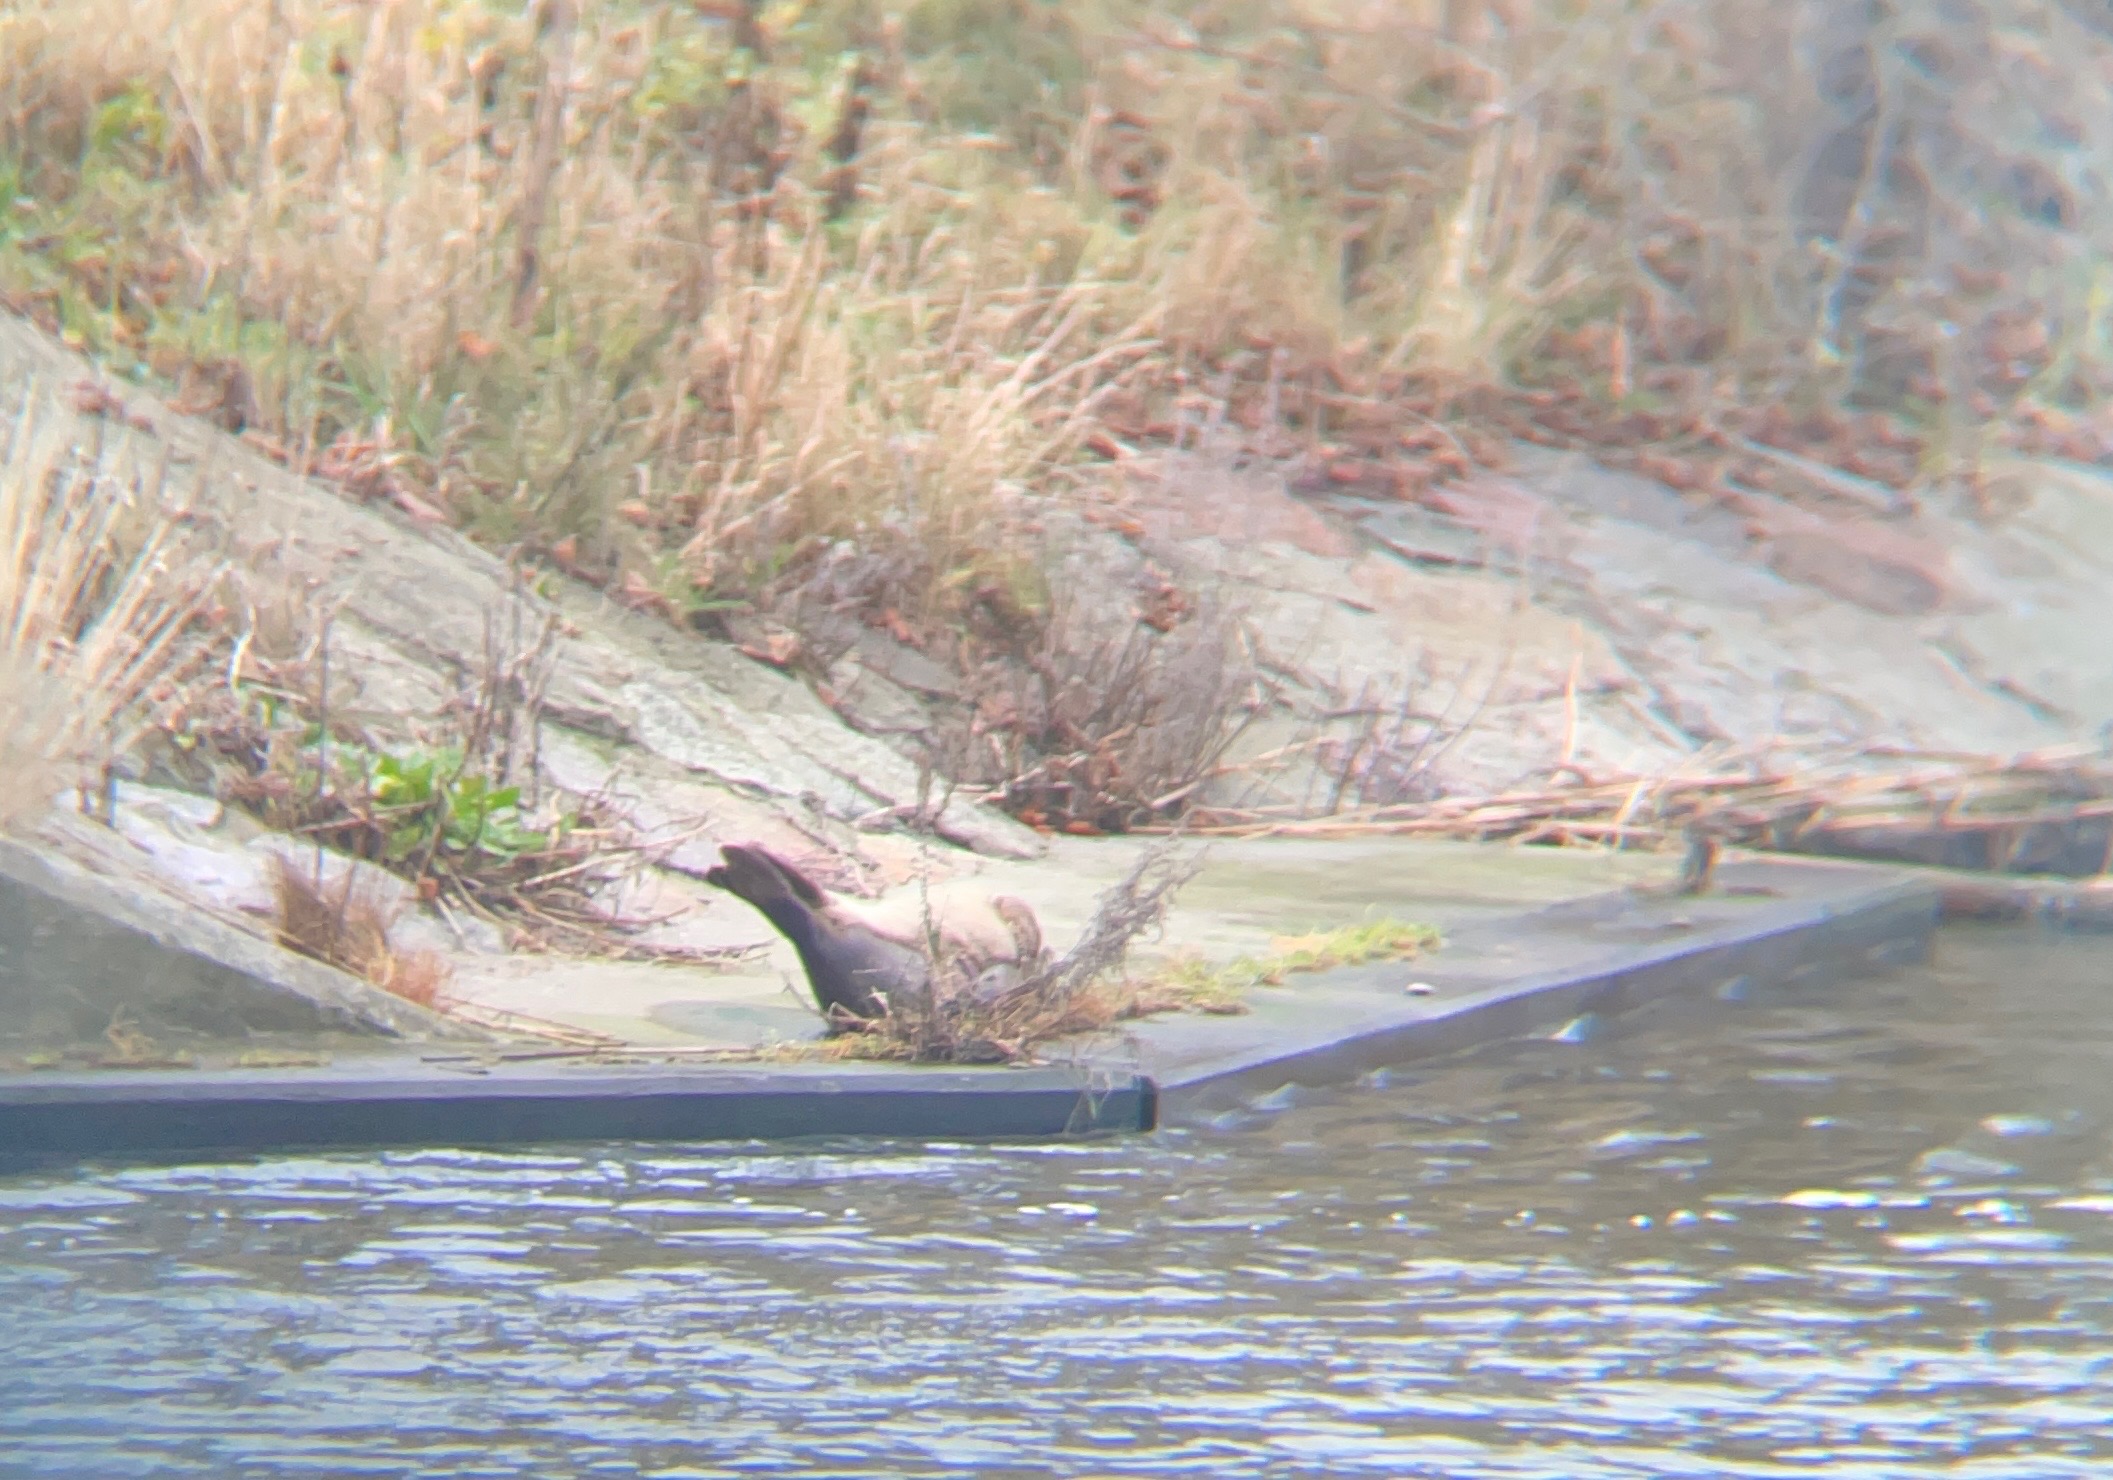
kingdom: Animalia
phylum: Chordata
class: Mammalia
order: Carnivora
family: Phocidae
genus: Phoca
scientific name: Phoca vitulina
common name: Spættet sæl
